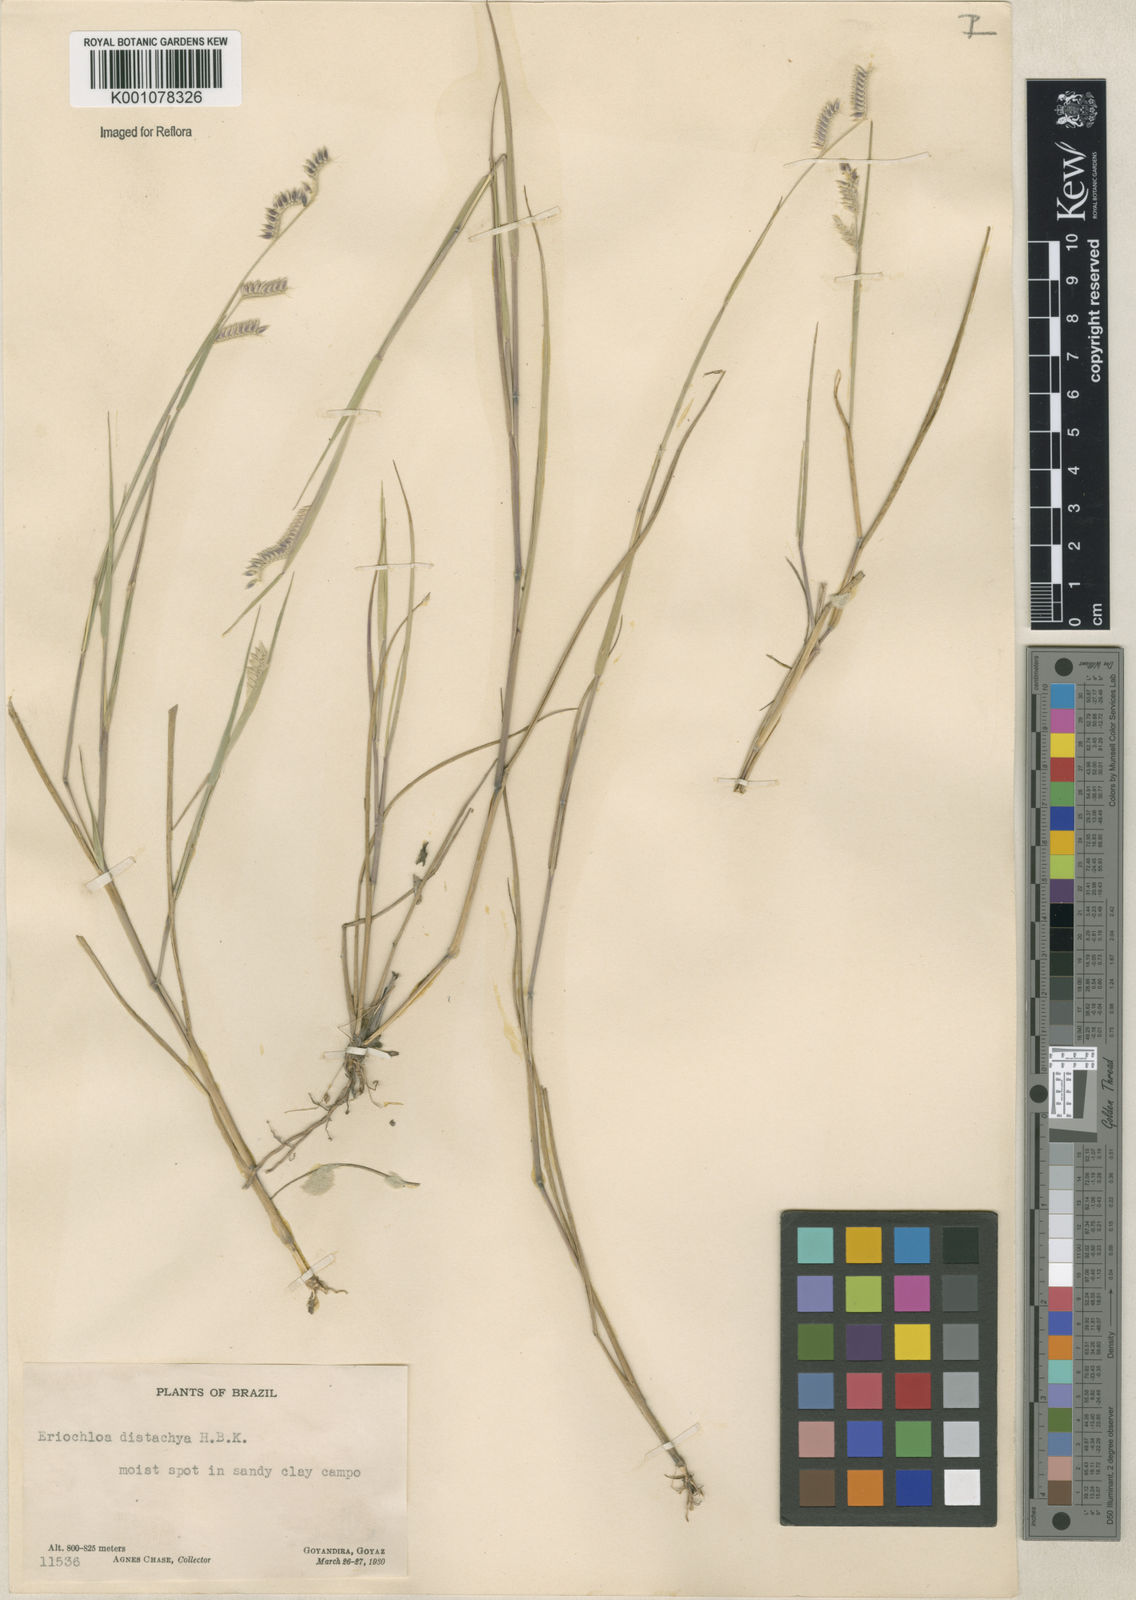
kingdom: Plantae
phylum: Tracheophyta
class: Liliopsida
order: Poales
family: Poaceae
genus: Eriochloa
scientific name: Eriochloa distachya
